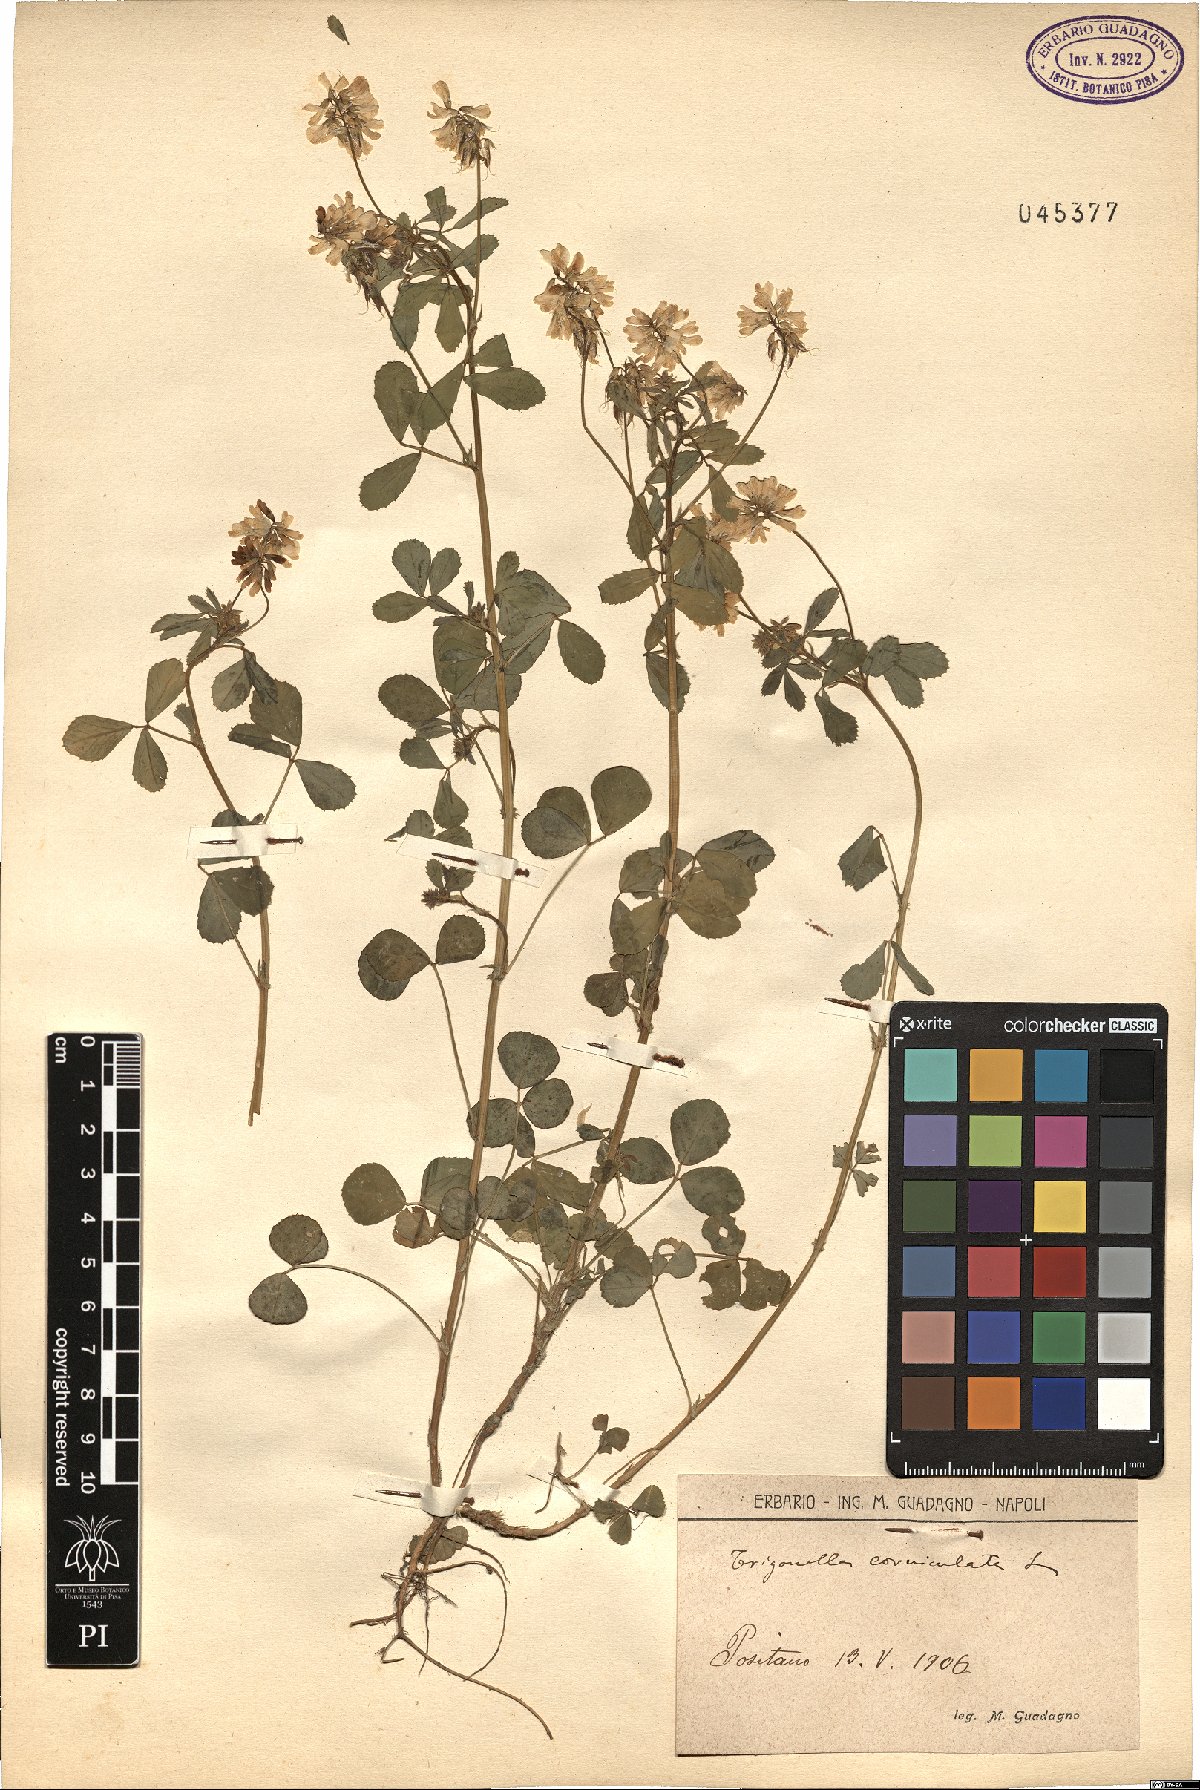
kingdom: Plantae
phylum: Tracheophyta
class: Magnoliopsida
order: Fabales
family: Fabaceae
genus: Trigonella
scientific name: Trigonella balansae
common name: Sickle-fruited fenugreek
